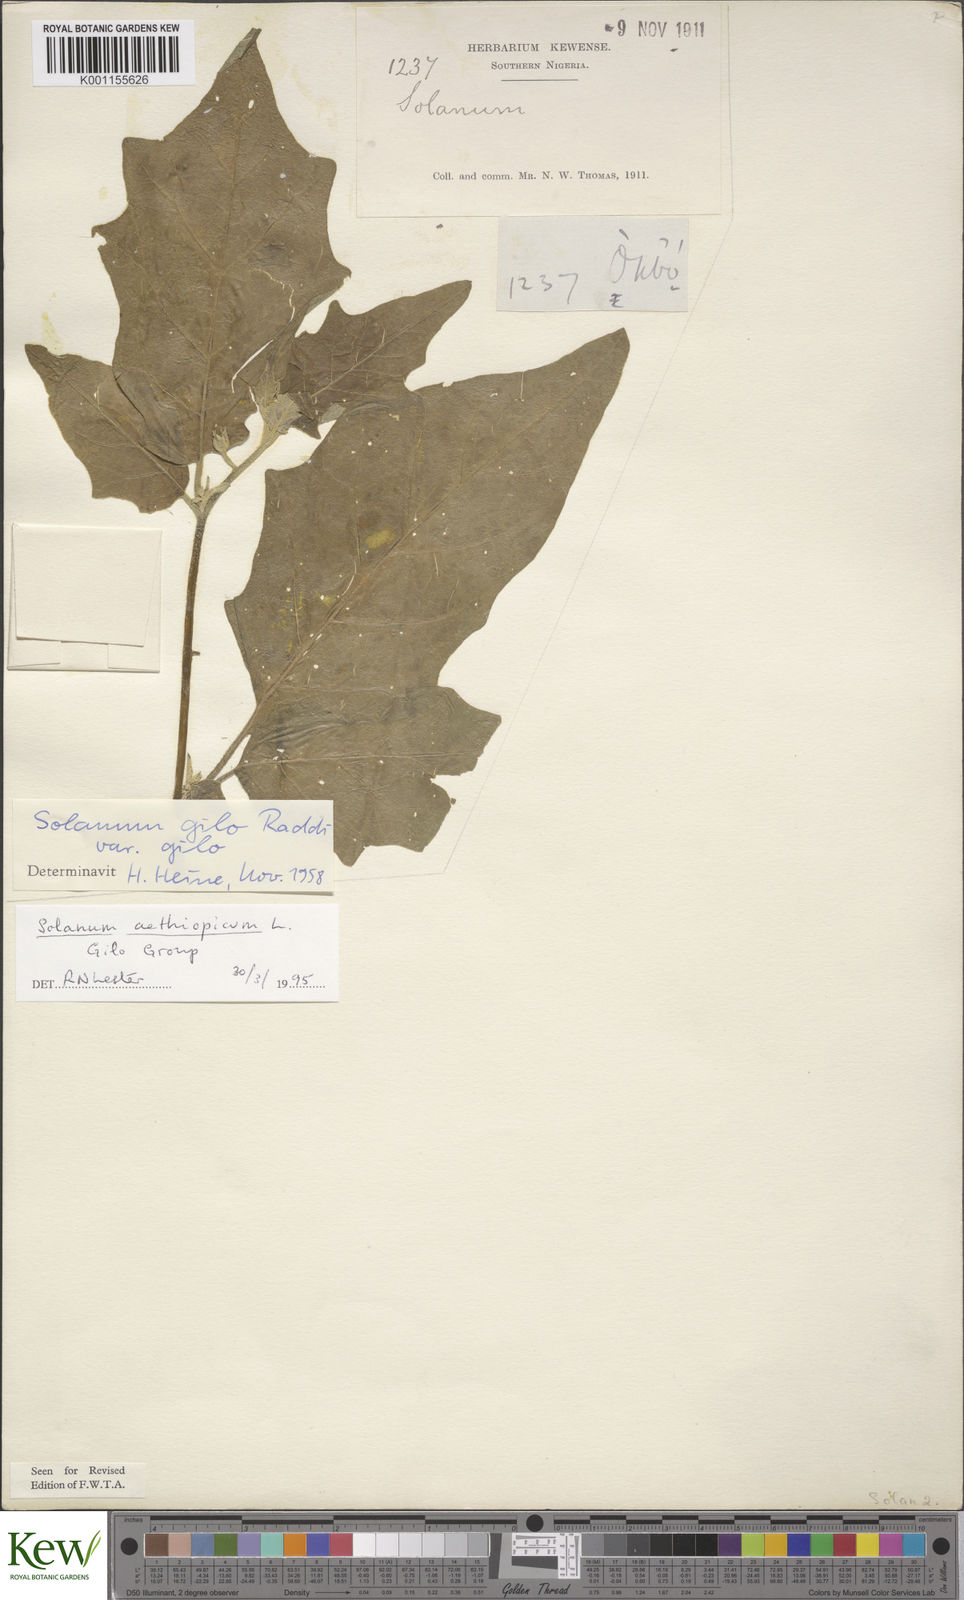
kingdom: Plantae
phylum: Tracheophyta
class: Magnoliopsida
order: Solanales
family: Solanaceae
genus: Solanum
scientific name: Solanum aethiopicum
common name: Gilo
